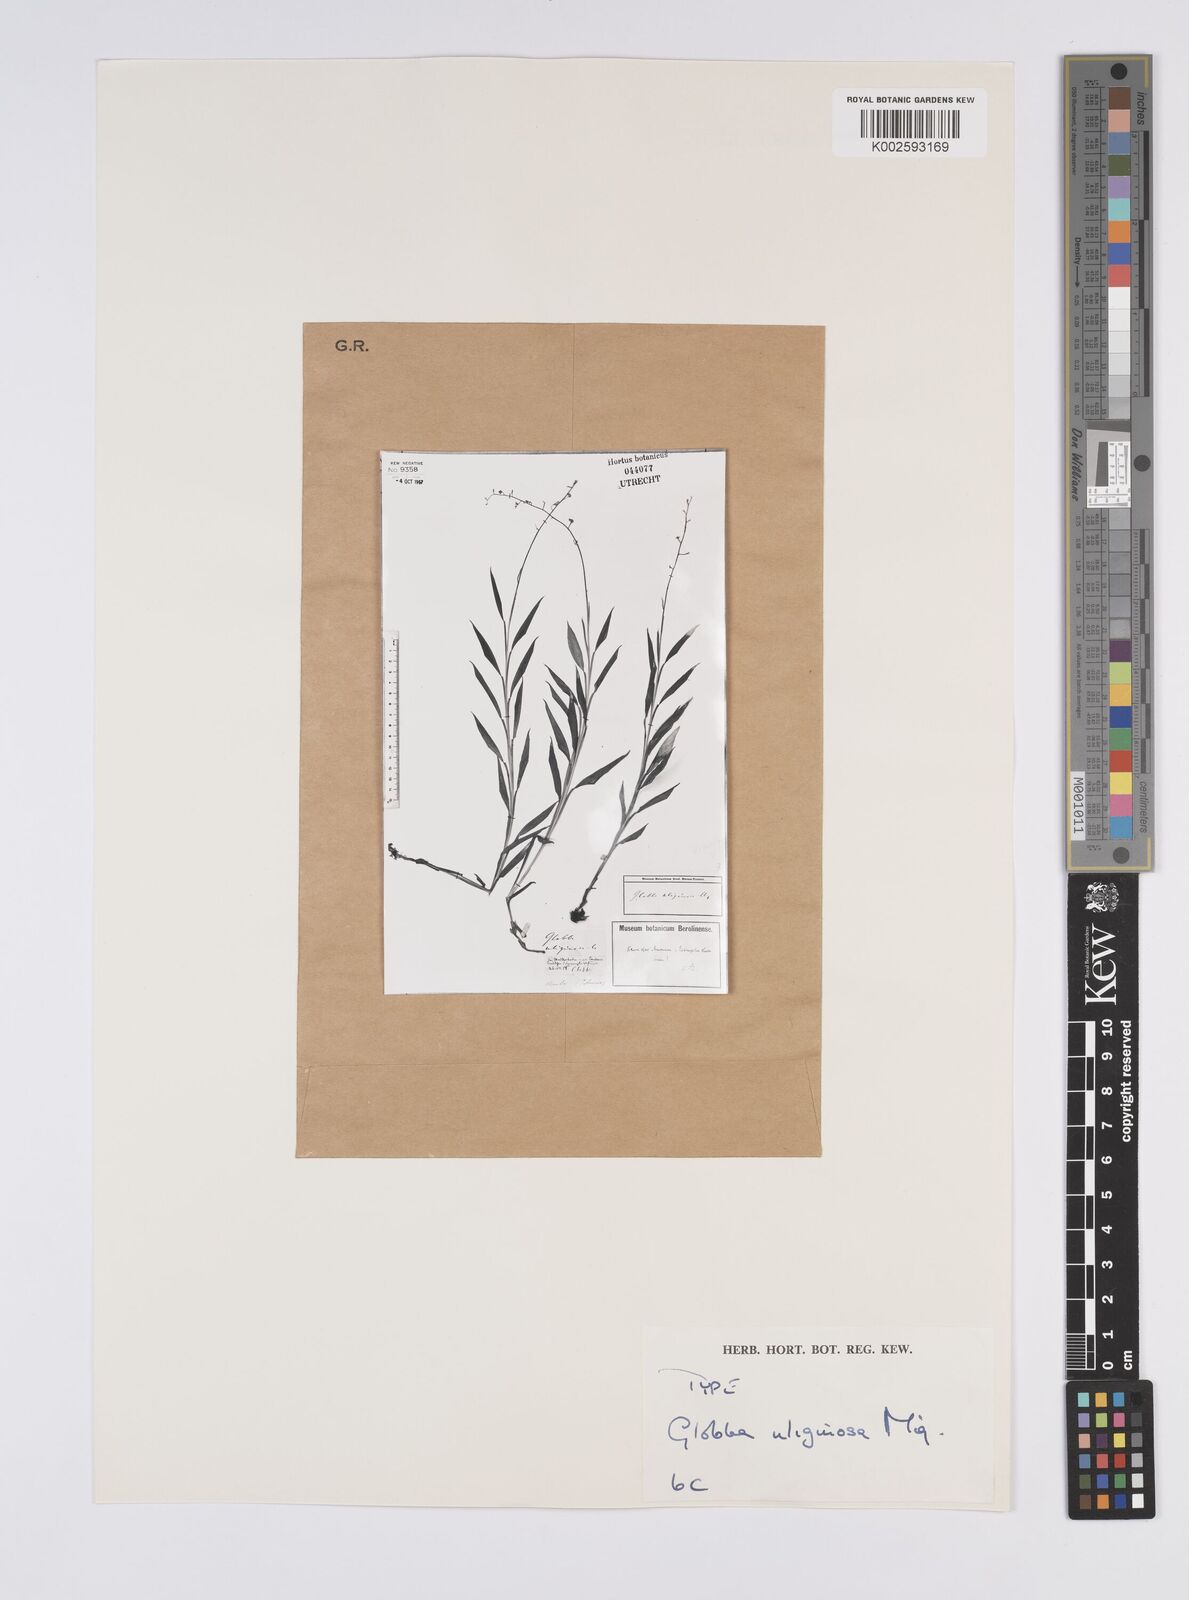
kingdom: Plantae
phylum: Tracheophyta
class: Liliopsida
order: Zingiberales
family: Zingiberaceae
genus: Globba
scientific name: Globba pendula
